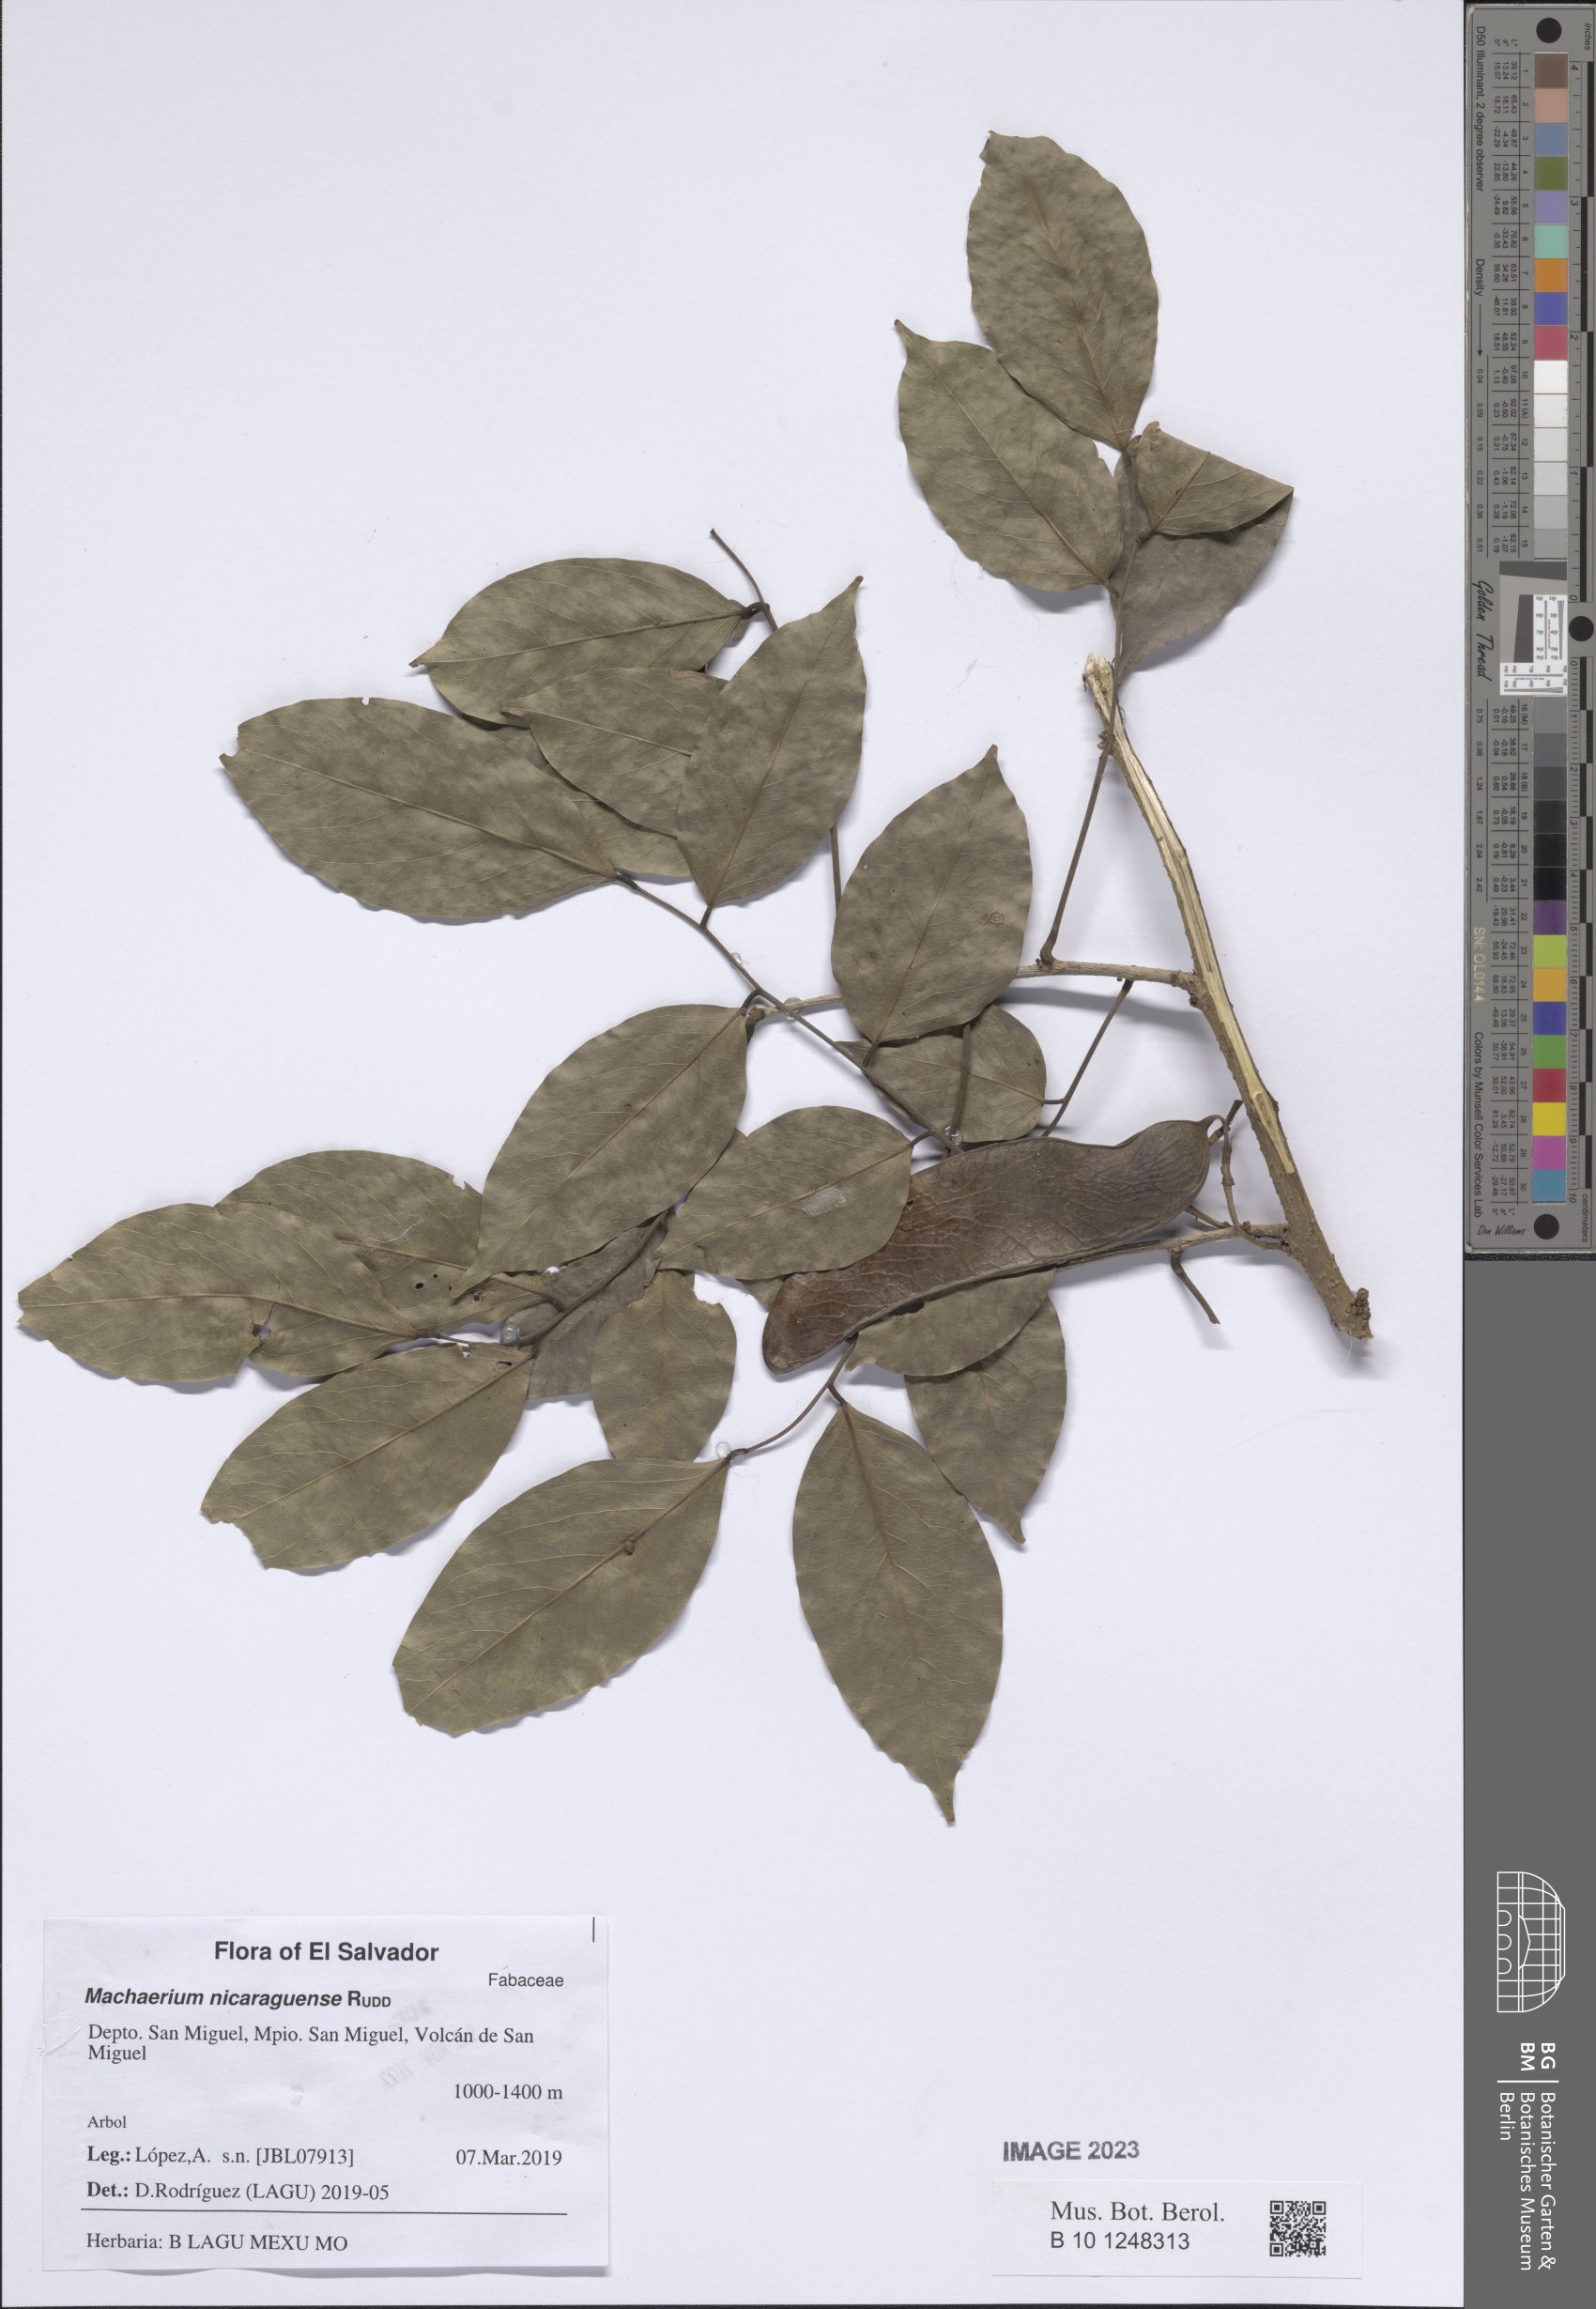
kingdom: Plantae
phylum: Tracheophyta
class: Magnoliopsida
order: Fabales
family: Fabaceae
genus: Machaerium
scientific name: Machaerium nicaraguense
